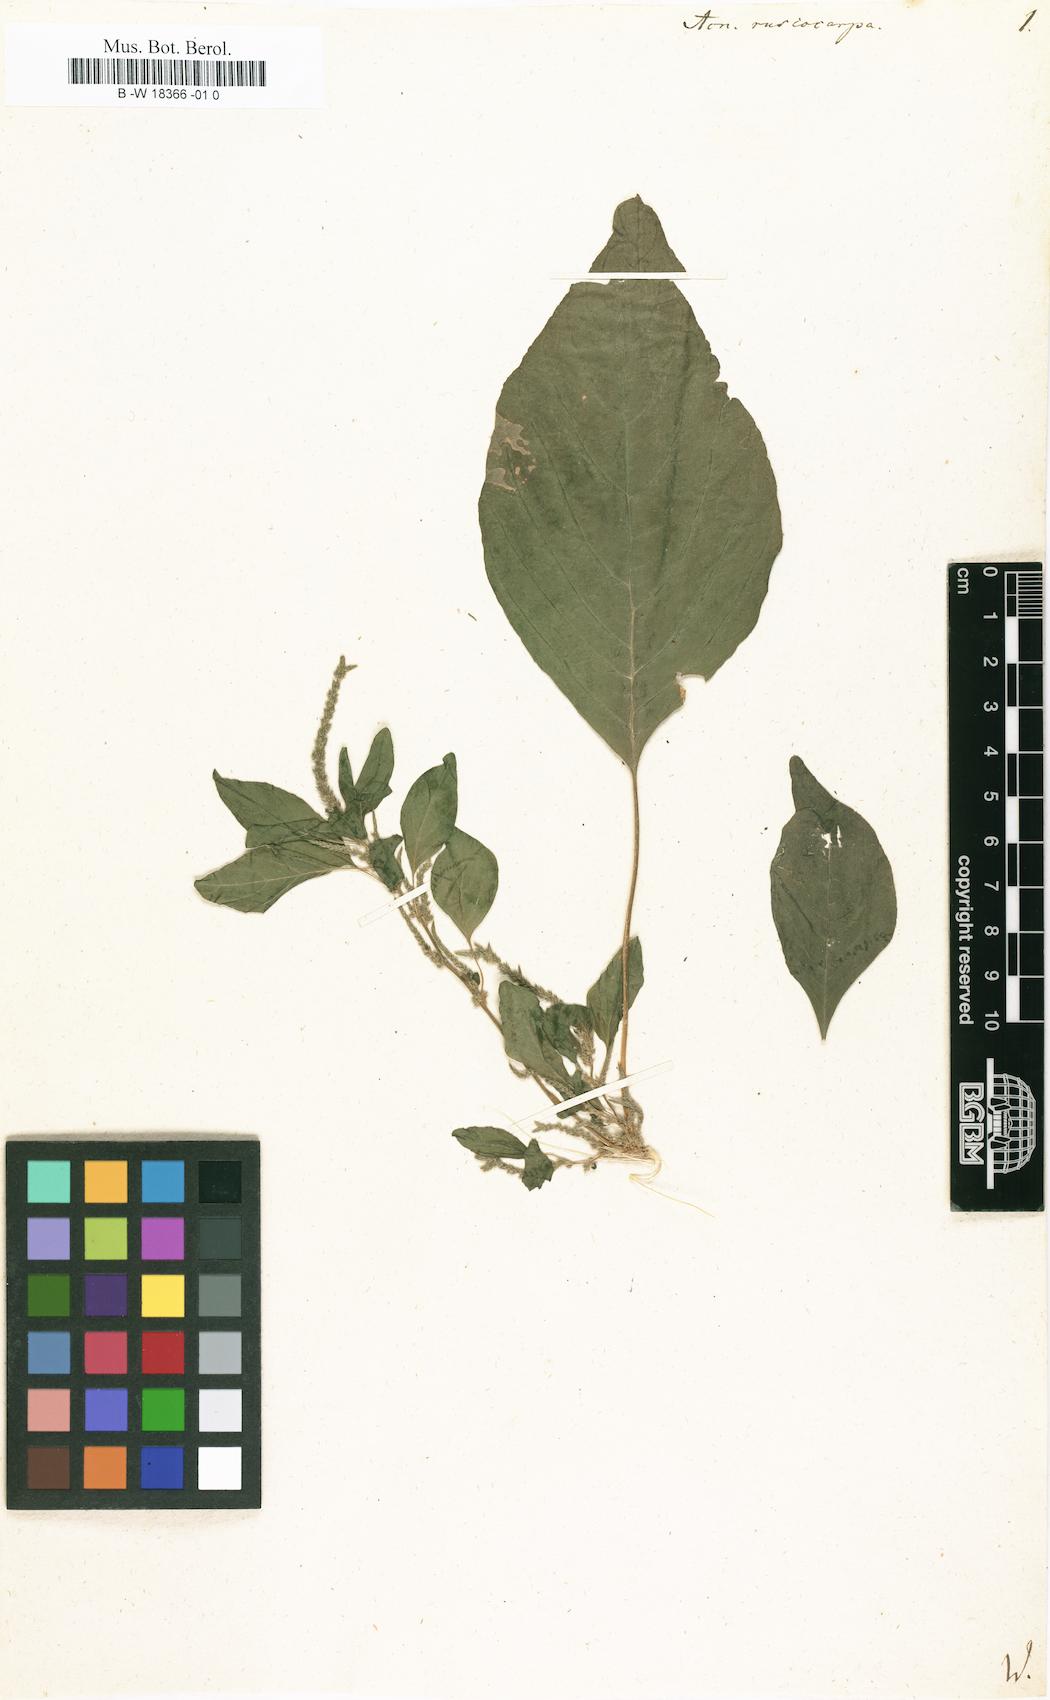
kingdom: Plantae
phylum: Tracheophyta
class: Magnoliopsida
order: Caryophyllales
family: Amaranthaceae
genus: Amaranthus
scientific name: Amaranthus cannabinus
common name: Salt-marsh water-hemp
